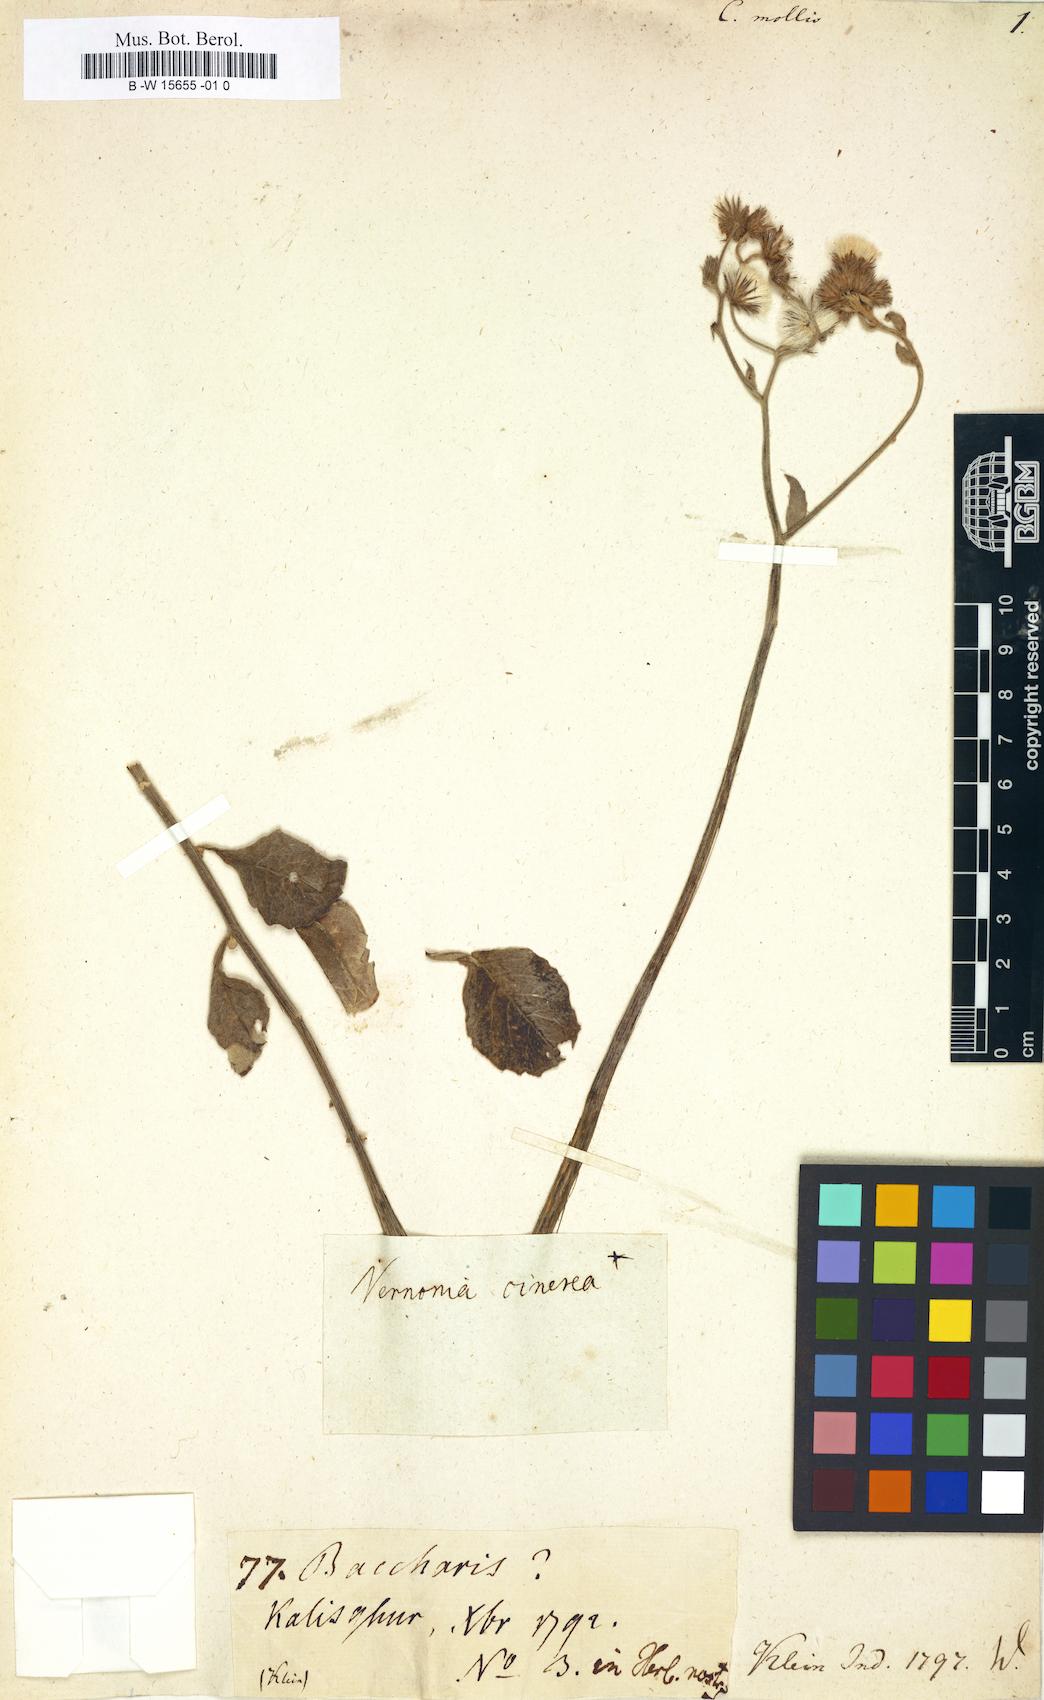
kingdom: Plantae
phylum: Tracheophyta
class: Magnoliopsida
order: Asterales
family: Asteraceae
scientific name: Asteraceae
